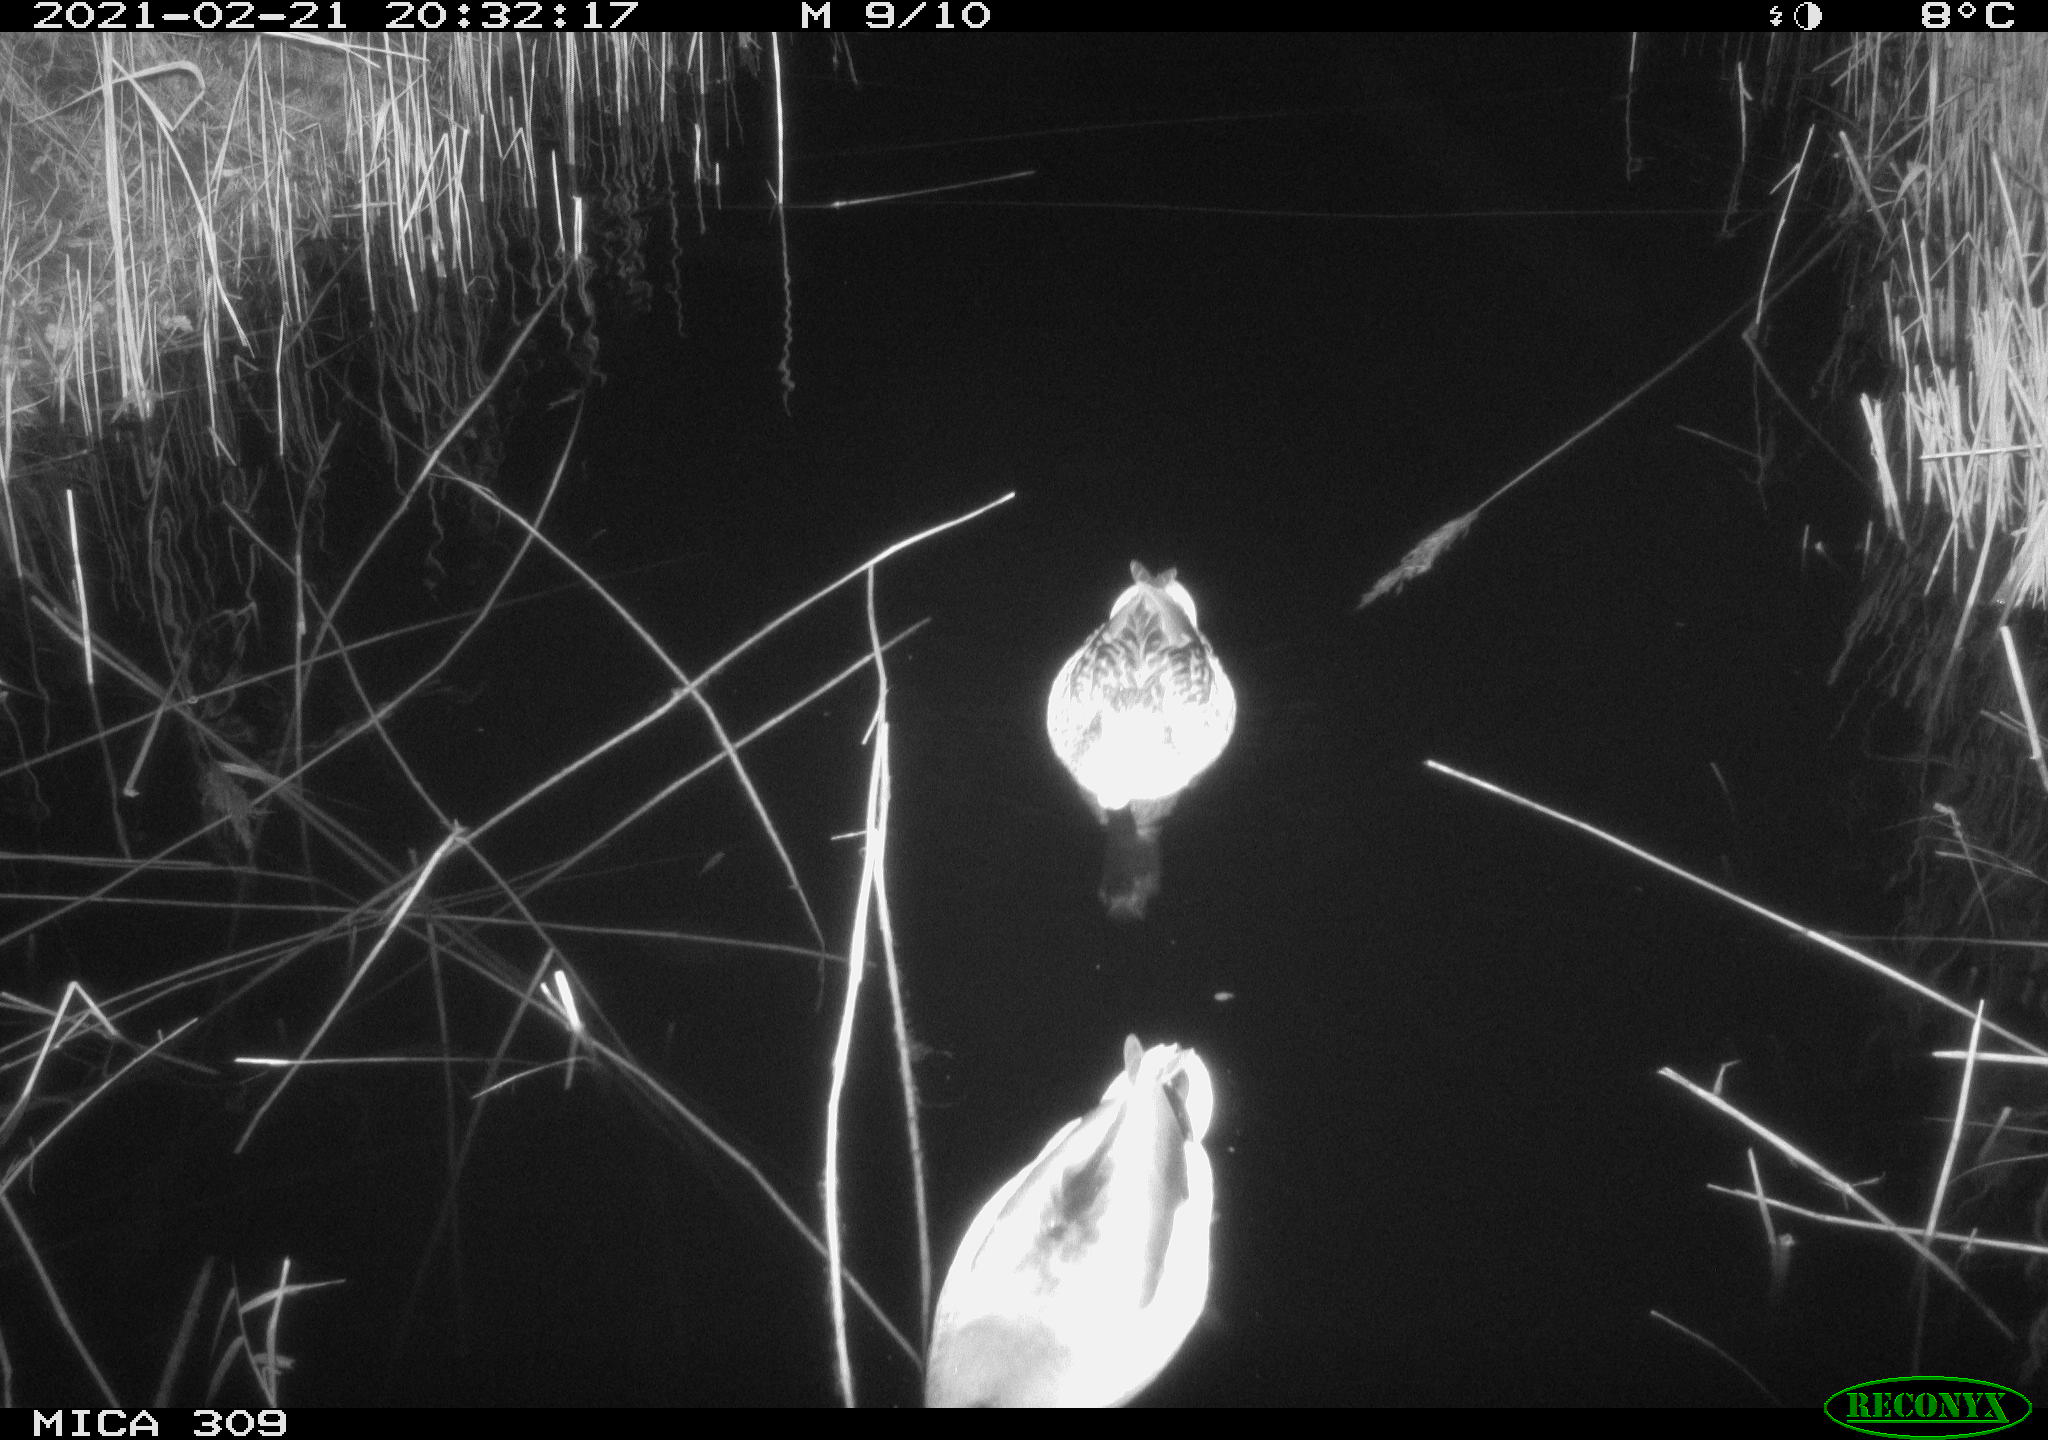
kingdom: Animalia
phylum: Chordata
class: Aves
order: Anseriformes
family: Anatidae
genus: Anas
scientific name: Anas platyrhynchos
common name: Mallard
